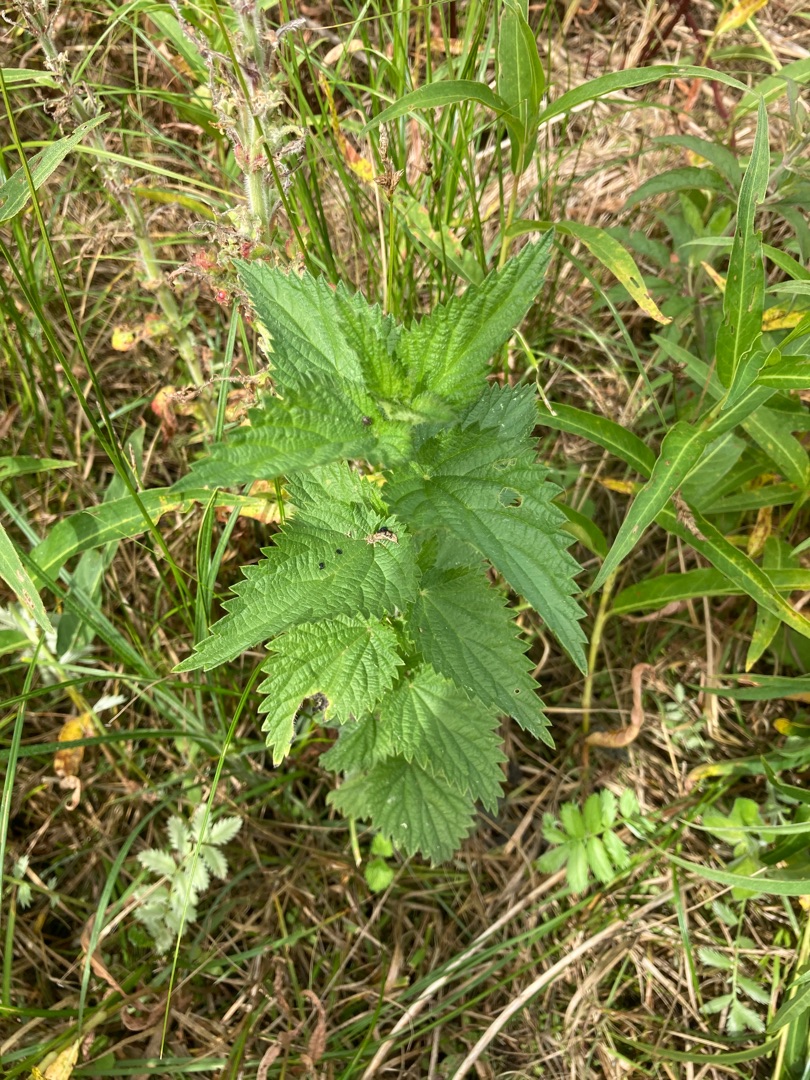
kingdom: Plantae
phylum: Tracheophyta
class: Magnoliopsida
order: Rosales
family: Urticaceae
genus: Urtica
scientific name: Urtica dioica
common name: Stor nælde
